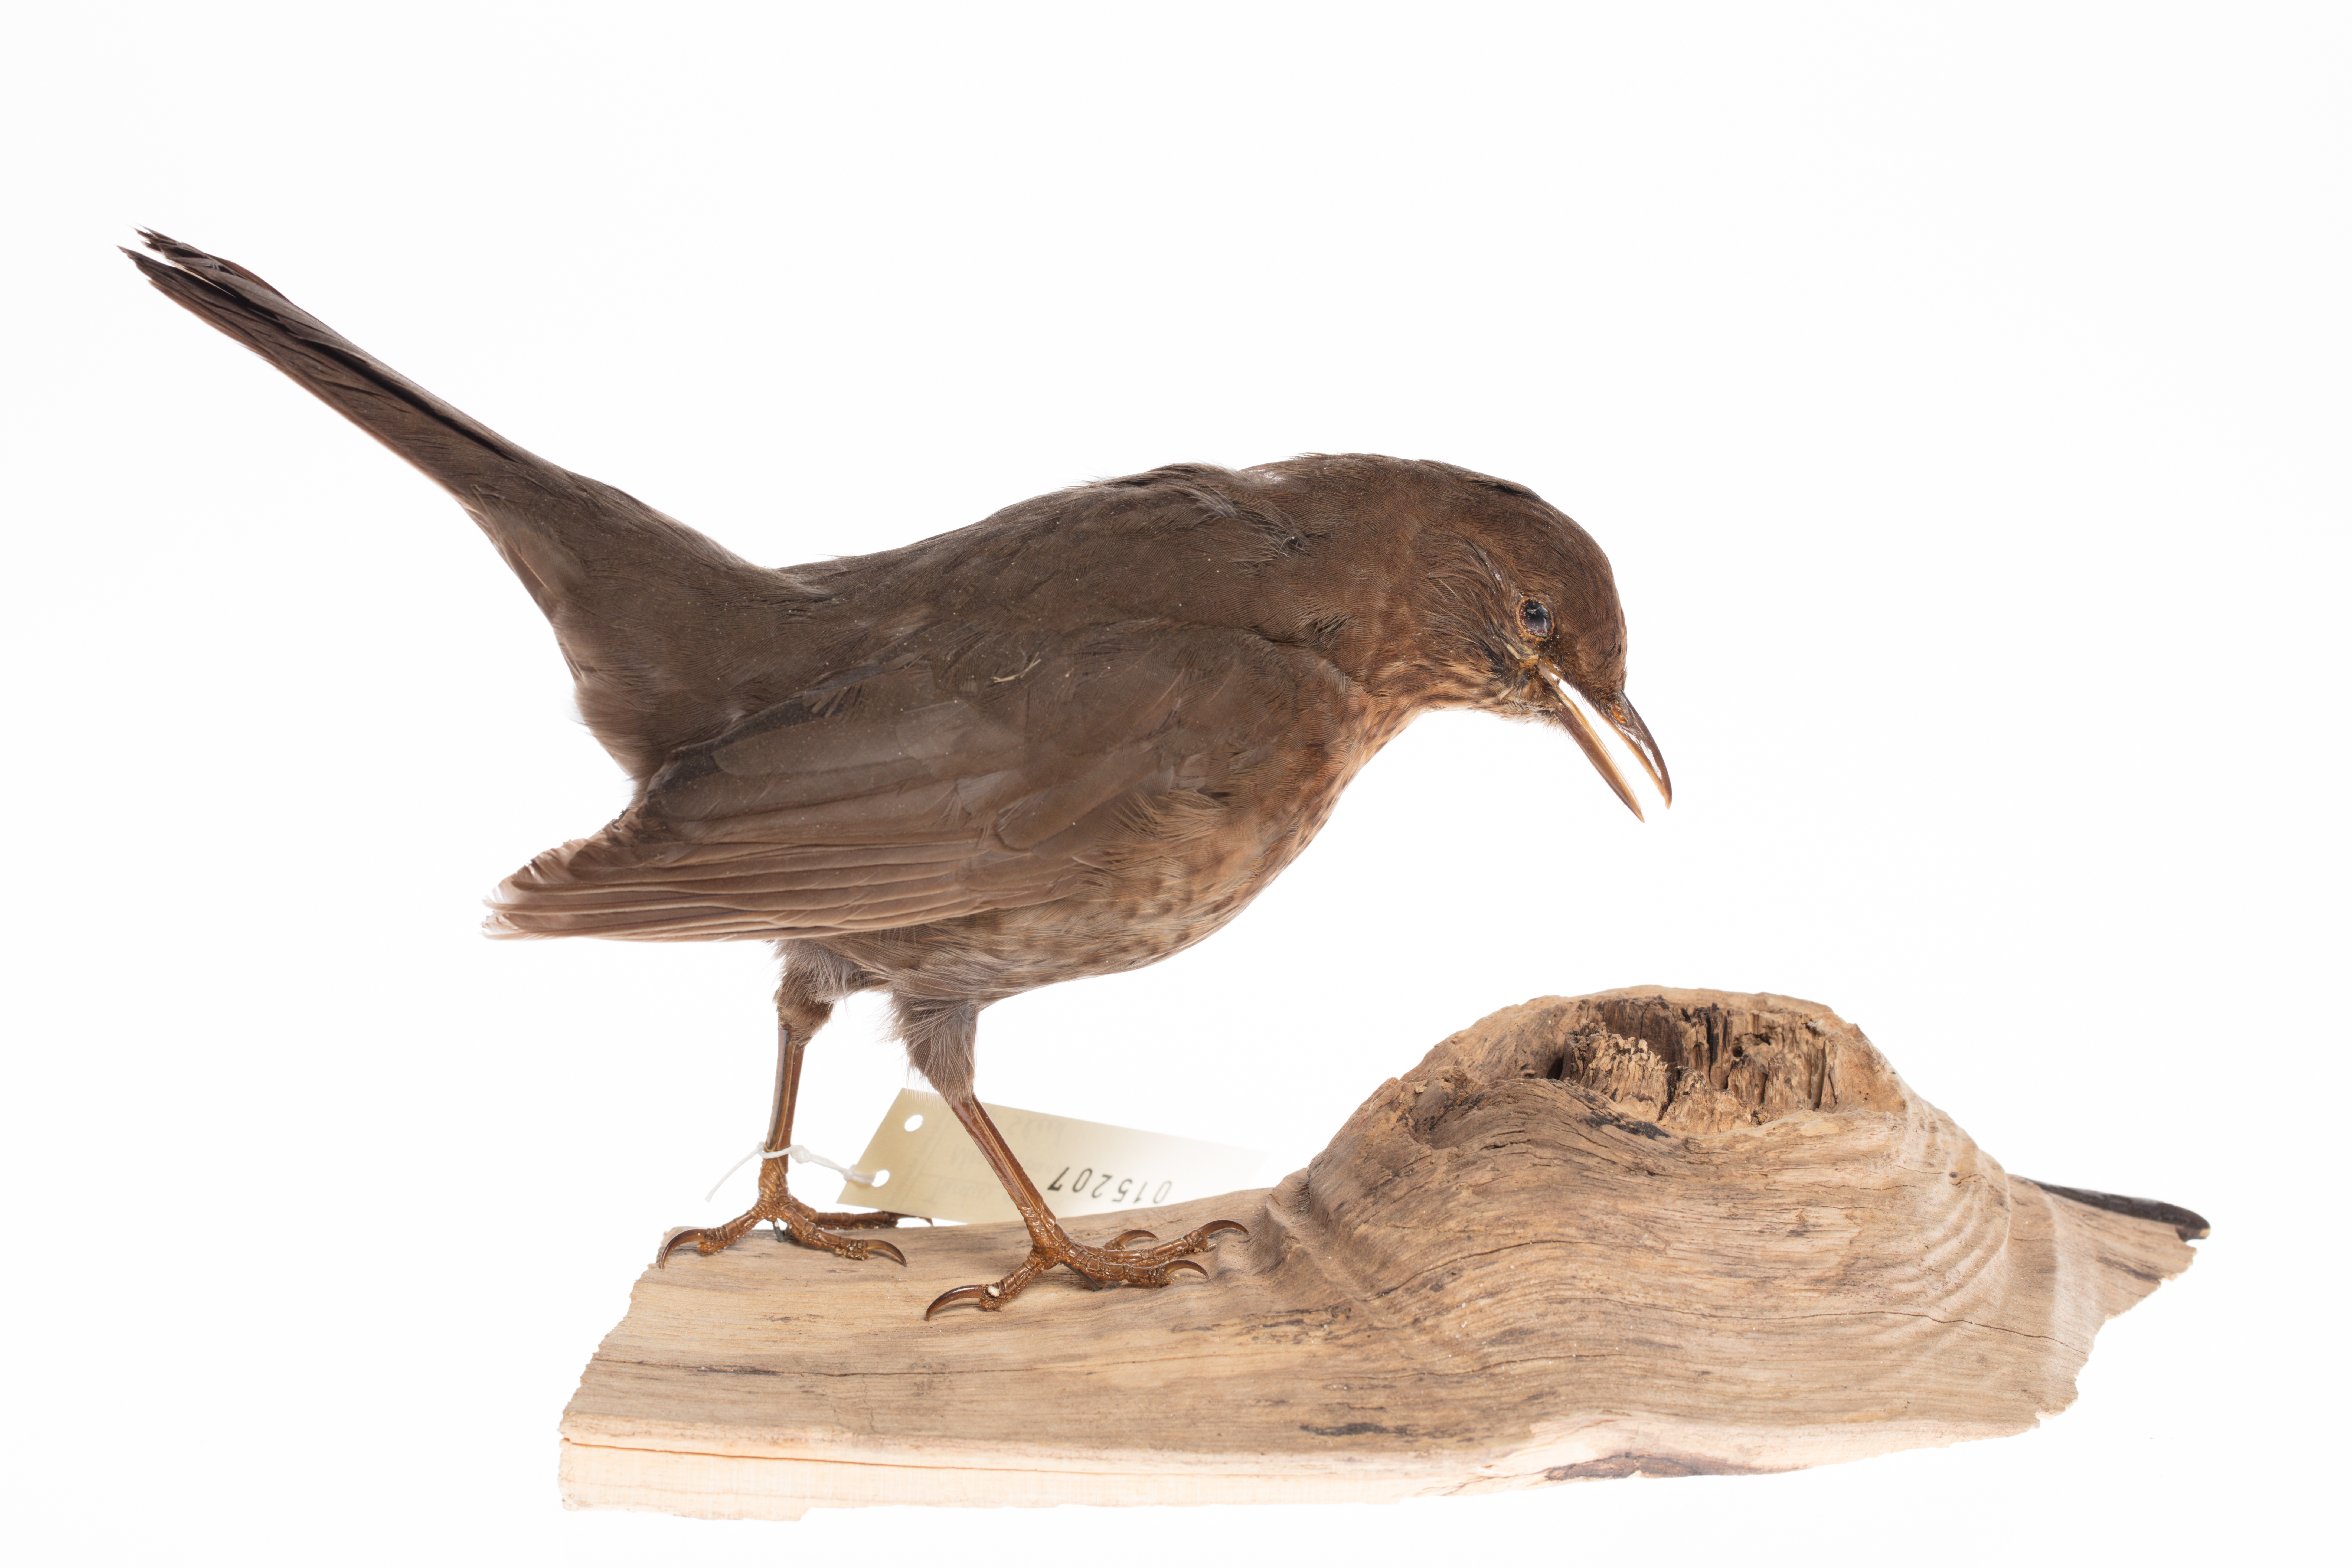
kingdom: Animalia
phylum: Chordata
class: Aves
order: Passeriformes
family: Turdidae
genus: Turdus
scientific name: Turdus merula
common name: Common blackbird
